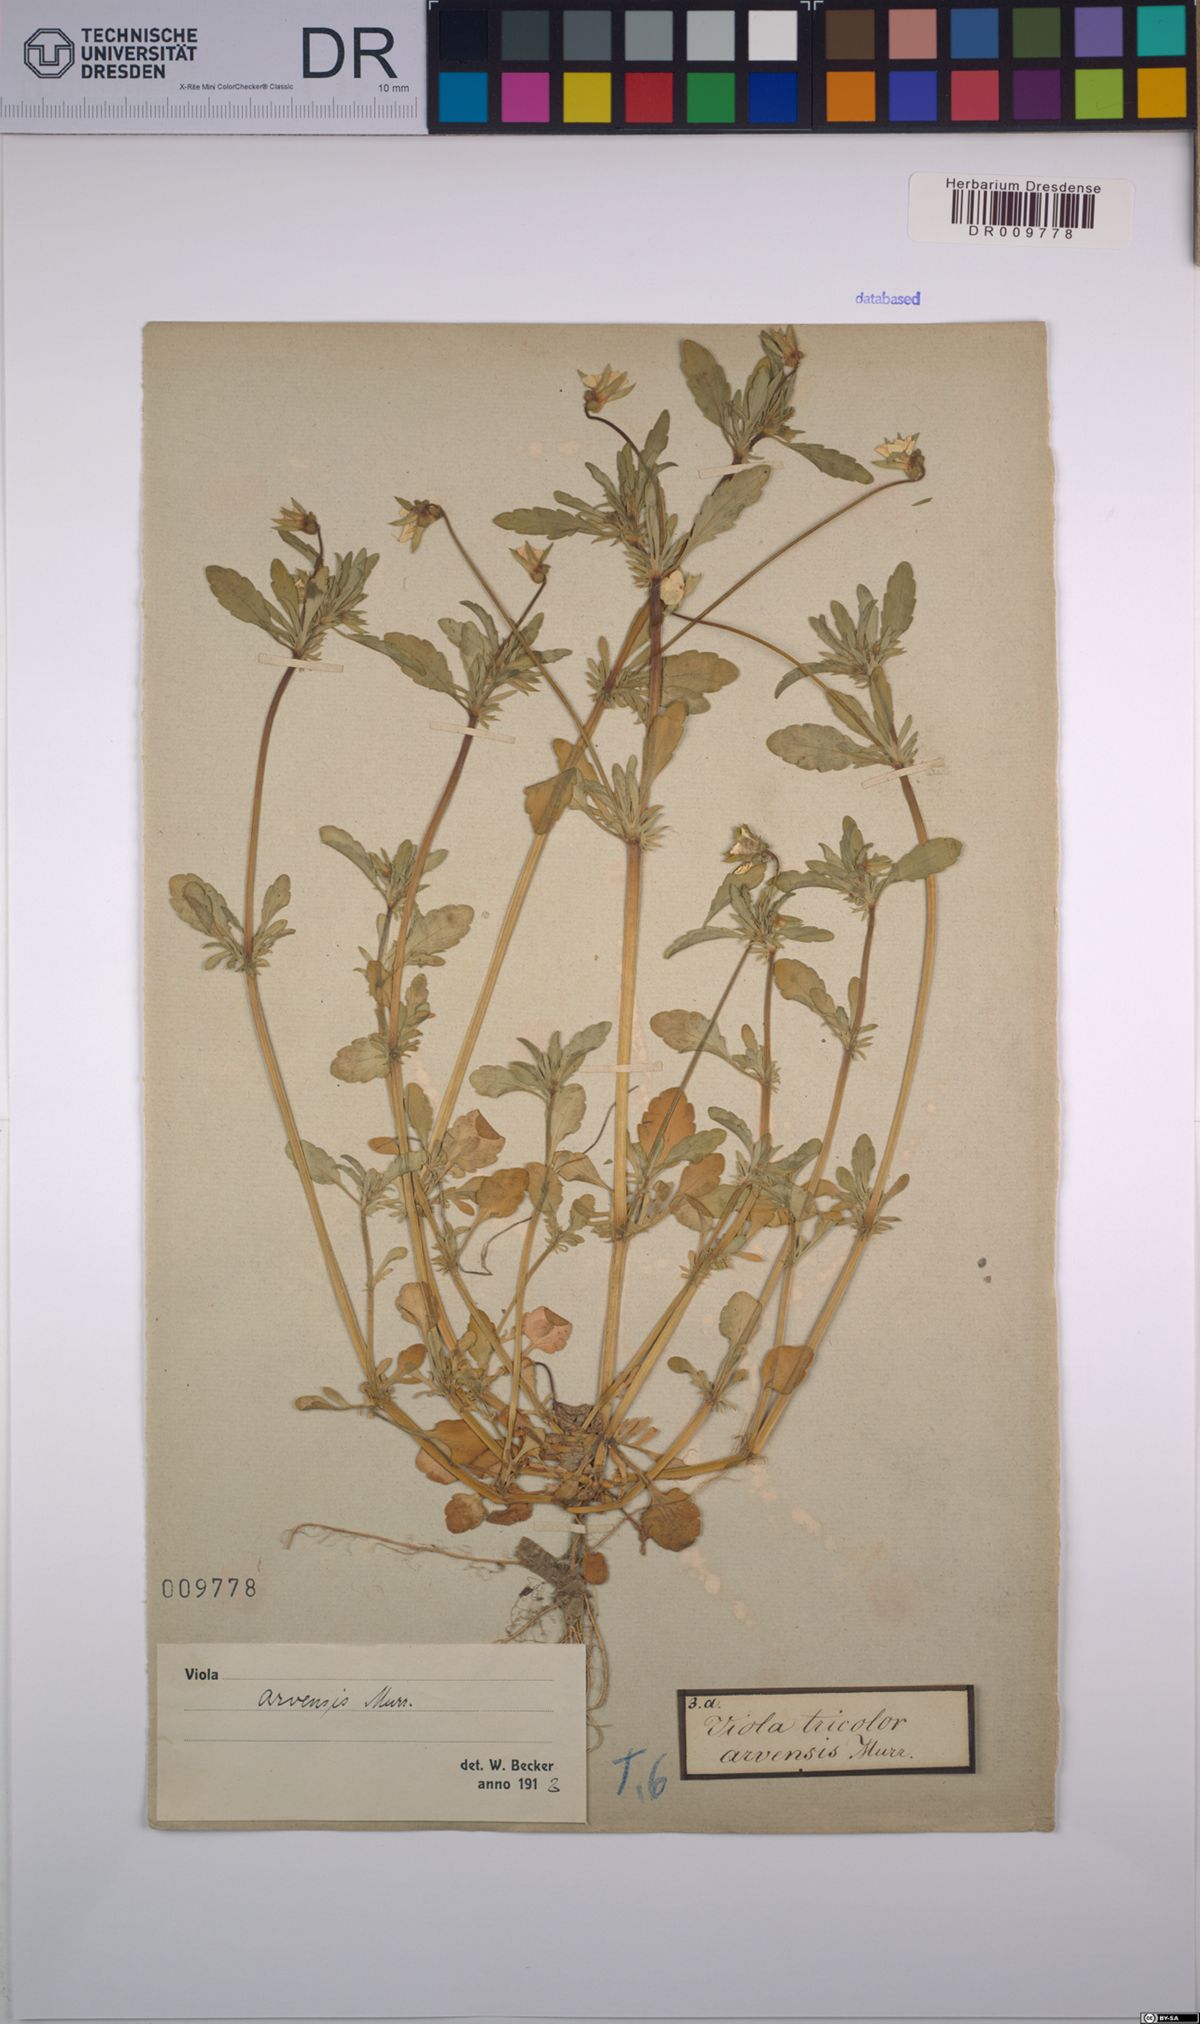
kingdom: Plantae
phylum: Tracheophyta
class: Magnoliopsida
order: Malpighiales
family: Violaceae
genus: Viola
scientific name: Viola arvensis
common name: Field pansy
